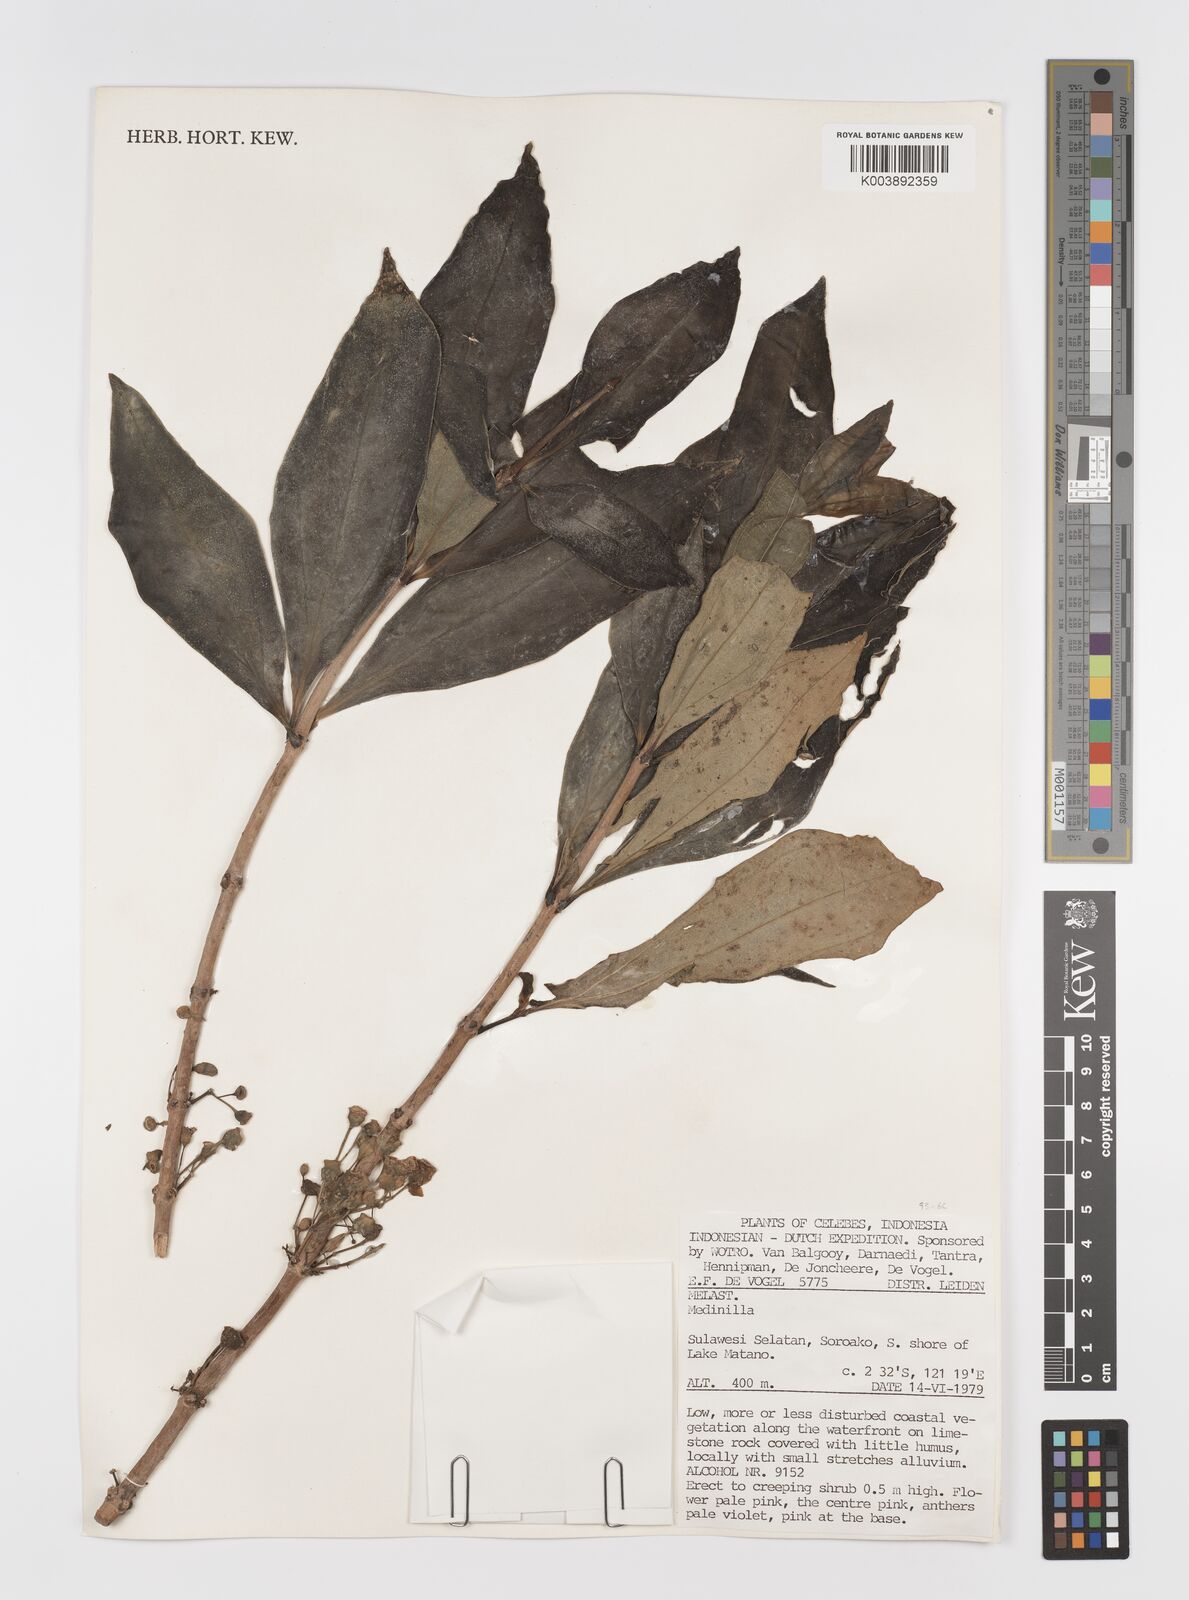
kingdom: Plantae
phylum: Tracheophyta
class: Magnoliopsida
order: Myrtales
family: Melastomataceae
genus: Medinilla
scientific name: Medinilla
